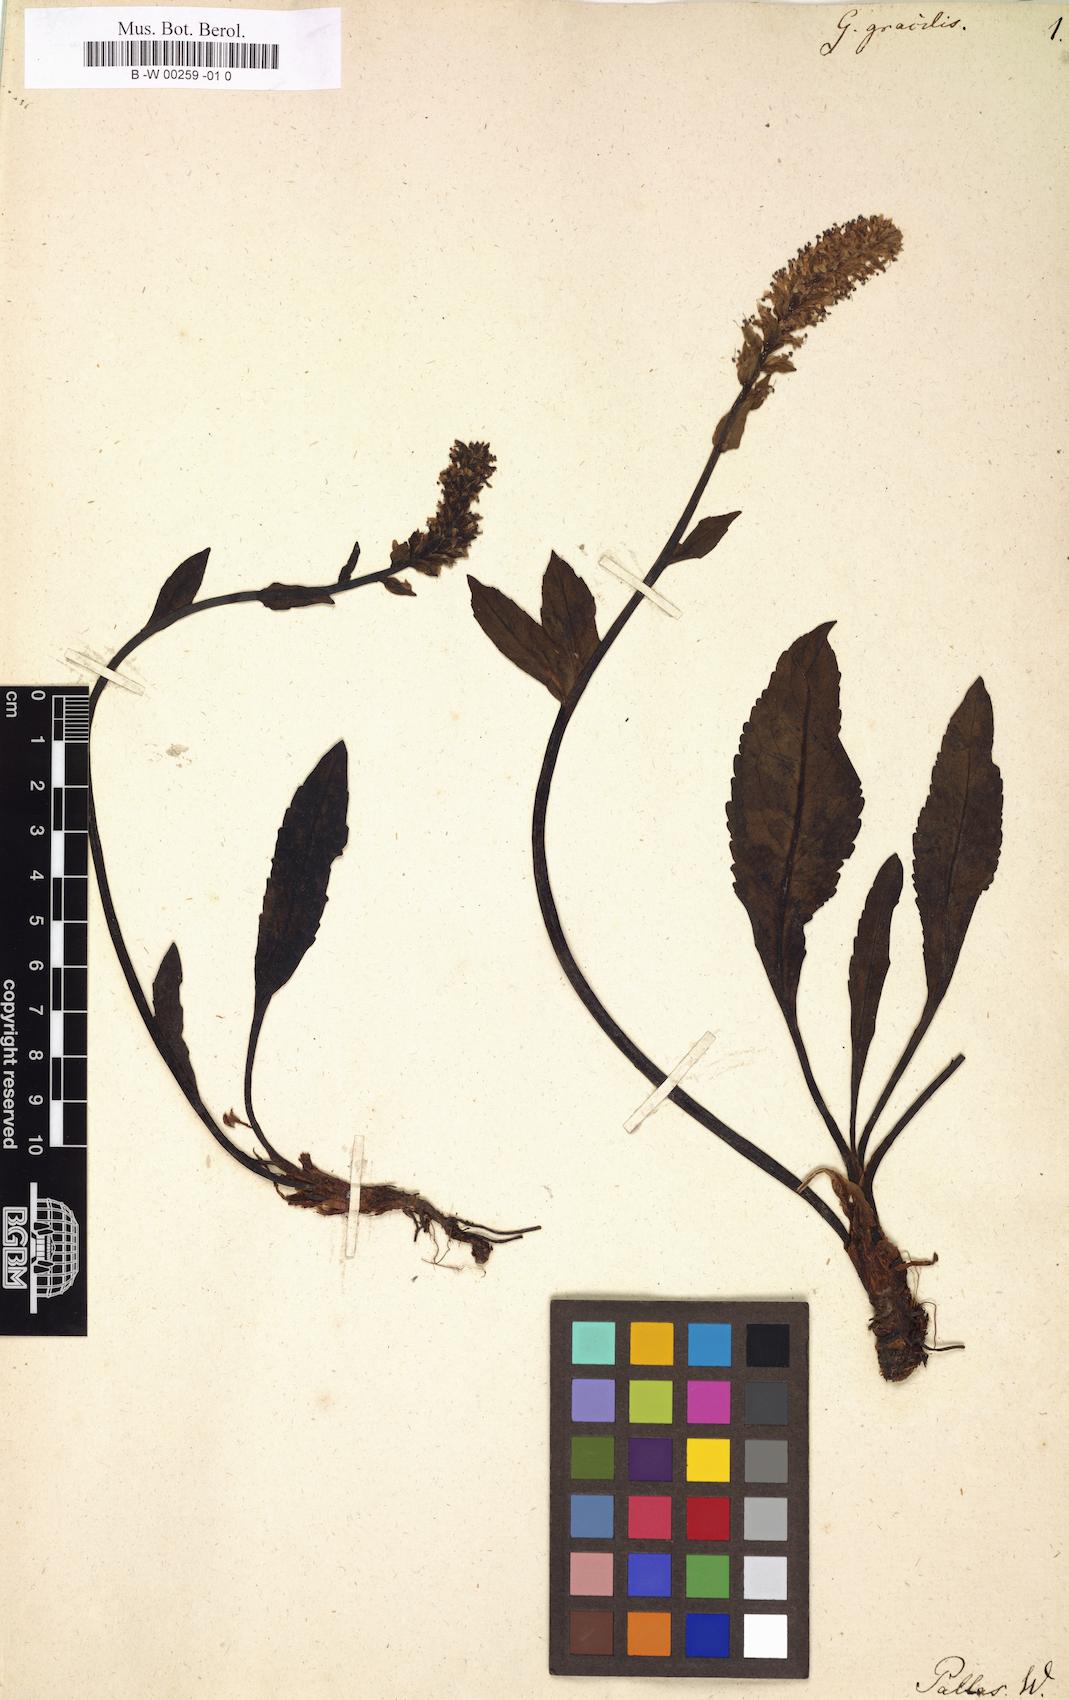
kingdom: Plantae
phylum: Tracheophyta
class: Magnoliopsida
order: Lamiales
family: Plantaginaceae
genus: Lagotis
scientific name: Lagotis glauca
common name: Glaucous weaselsnout
